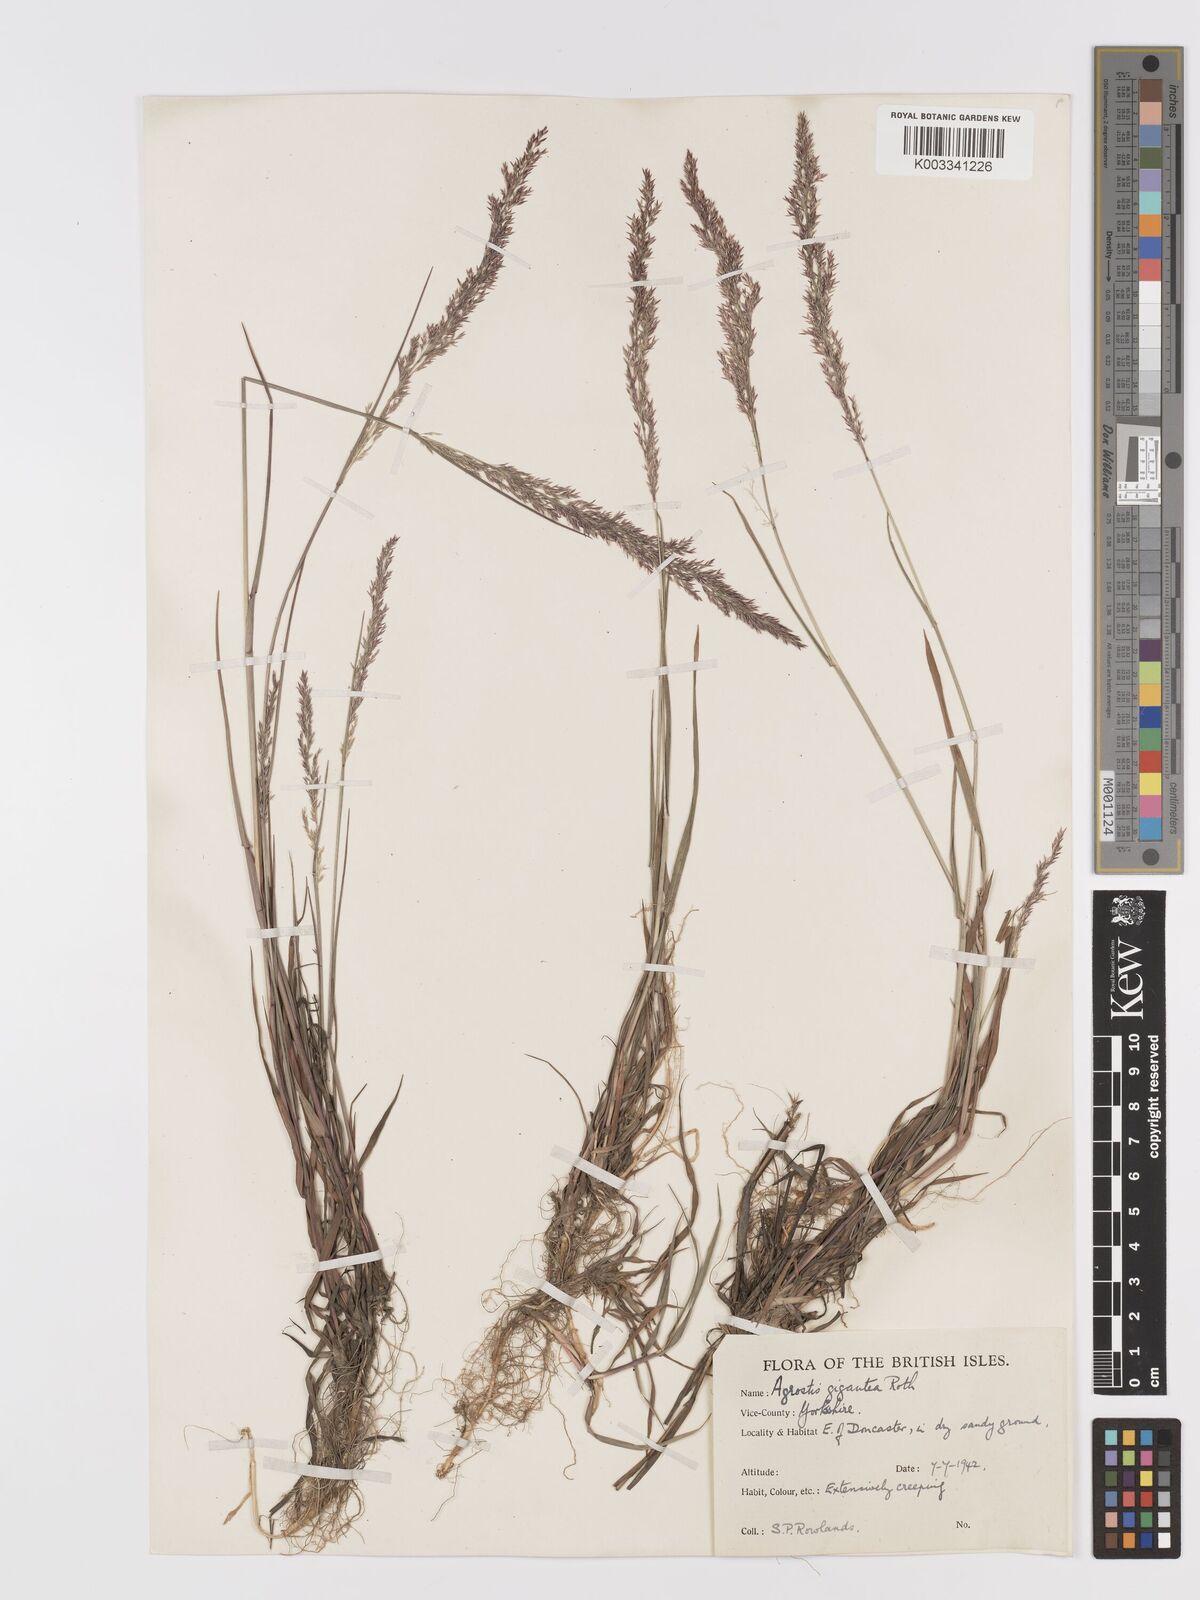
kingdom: Plantae
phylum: Tracheophyta
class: Liliopsida
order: Poales
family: Poaceae
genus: Agrostis
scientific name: Agrostis gigantea
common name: Black bent
